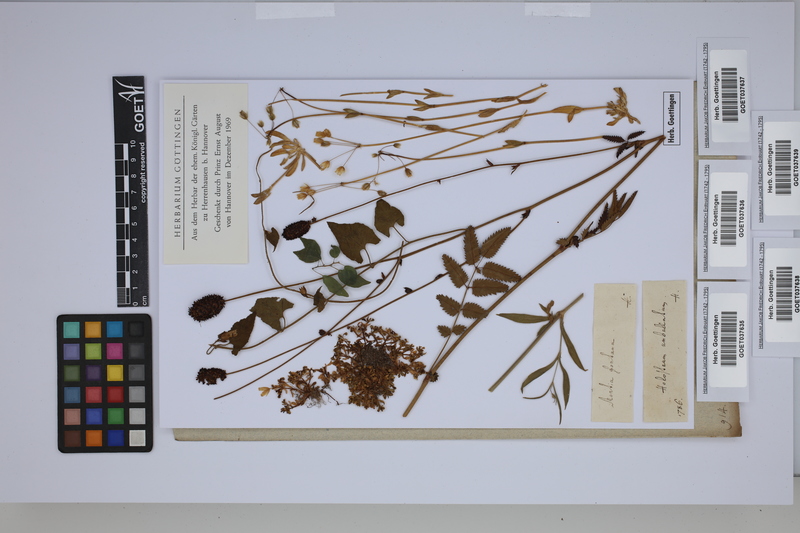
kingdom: Plantae
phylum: Tracheophyta
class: Magnoliopsida
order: Rosales
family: Rosaceae
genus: Sanguisorba
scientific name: Sanguisorba
